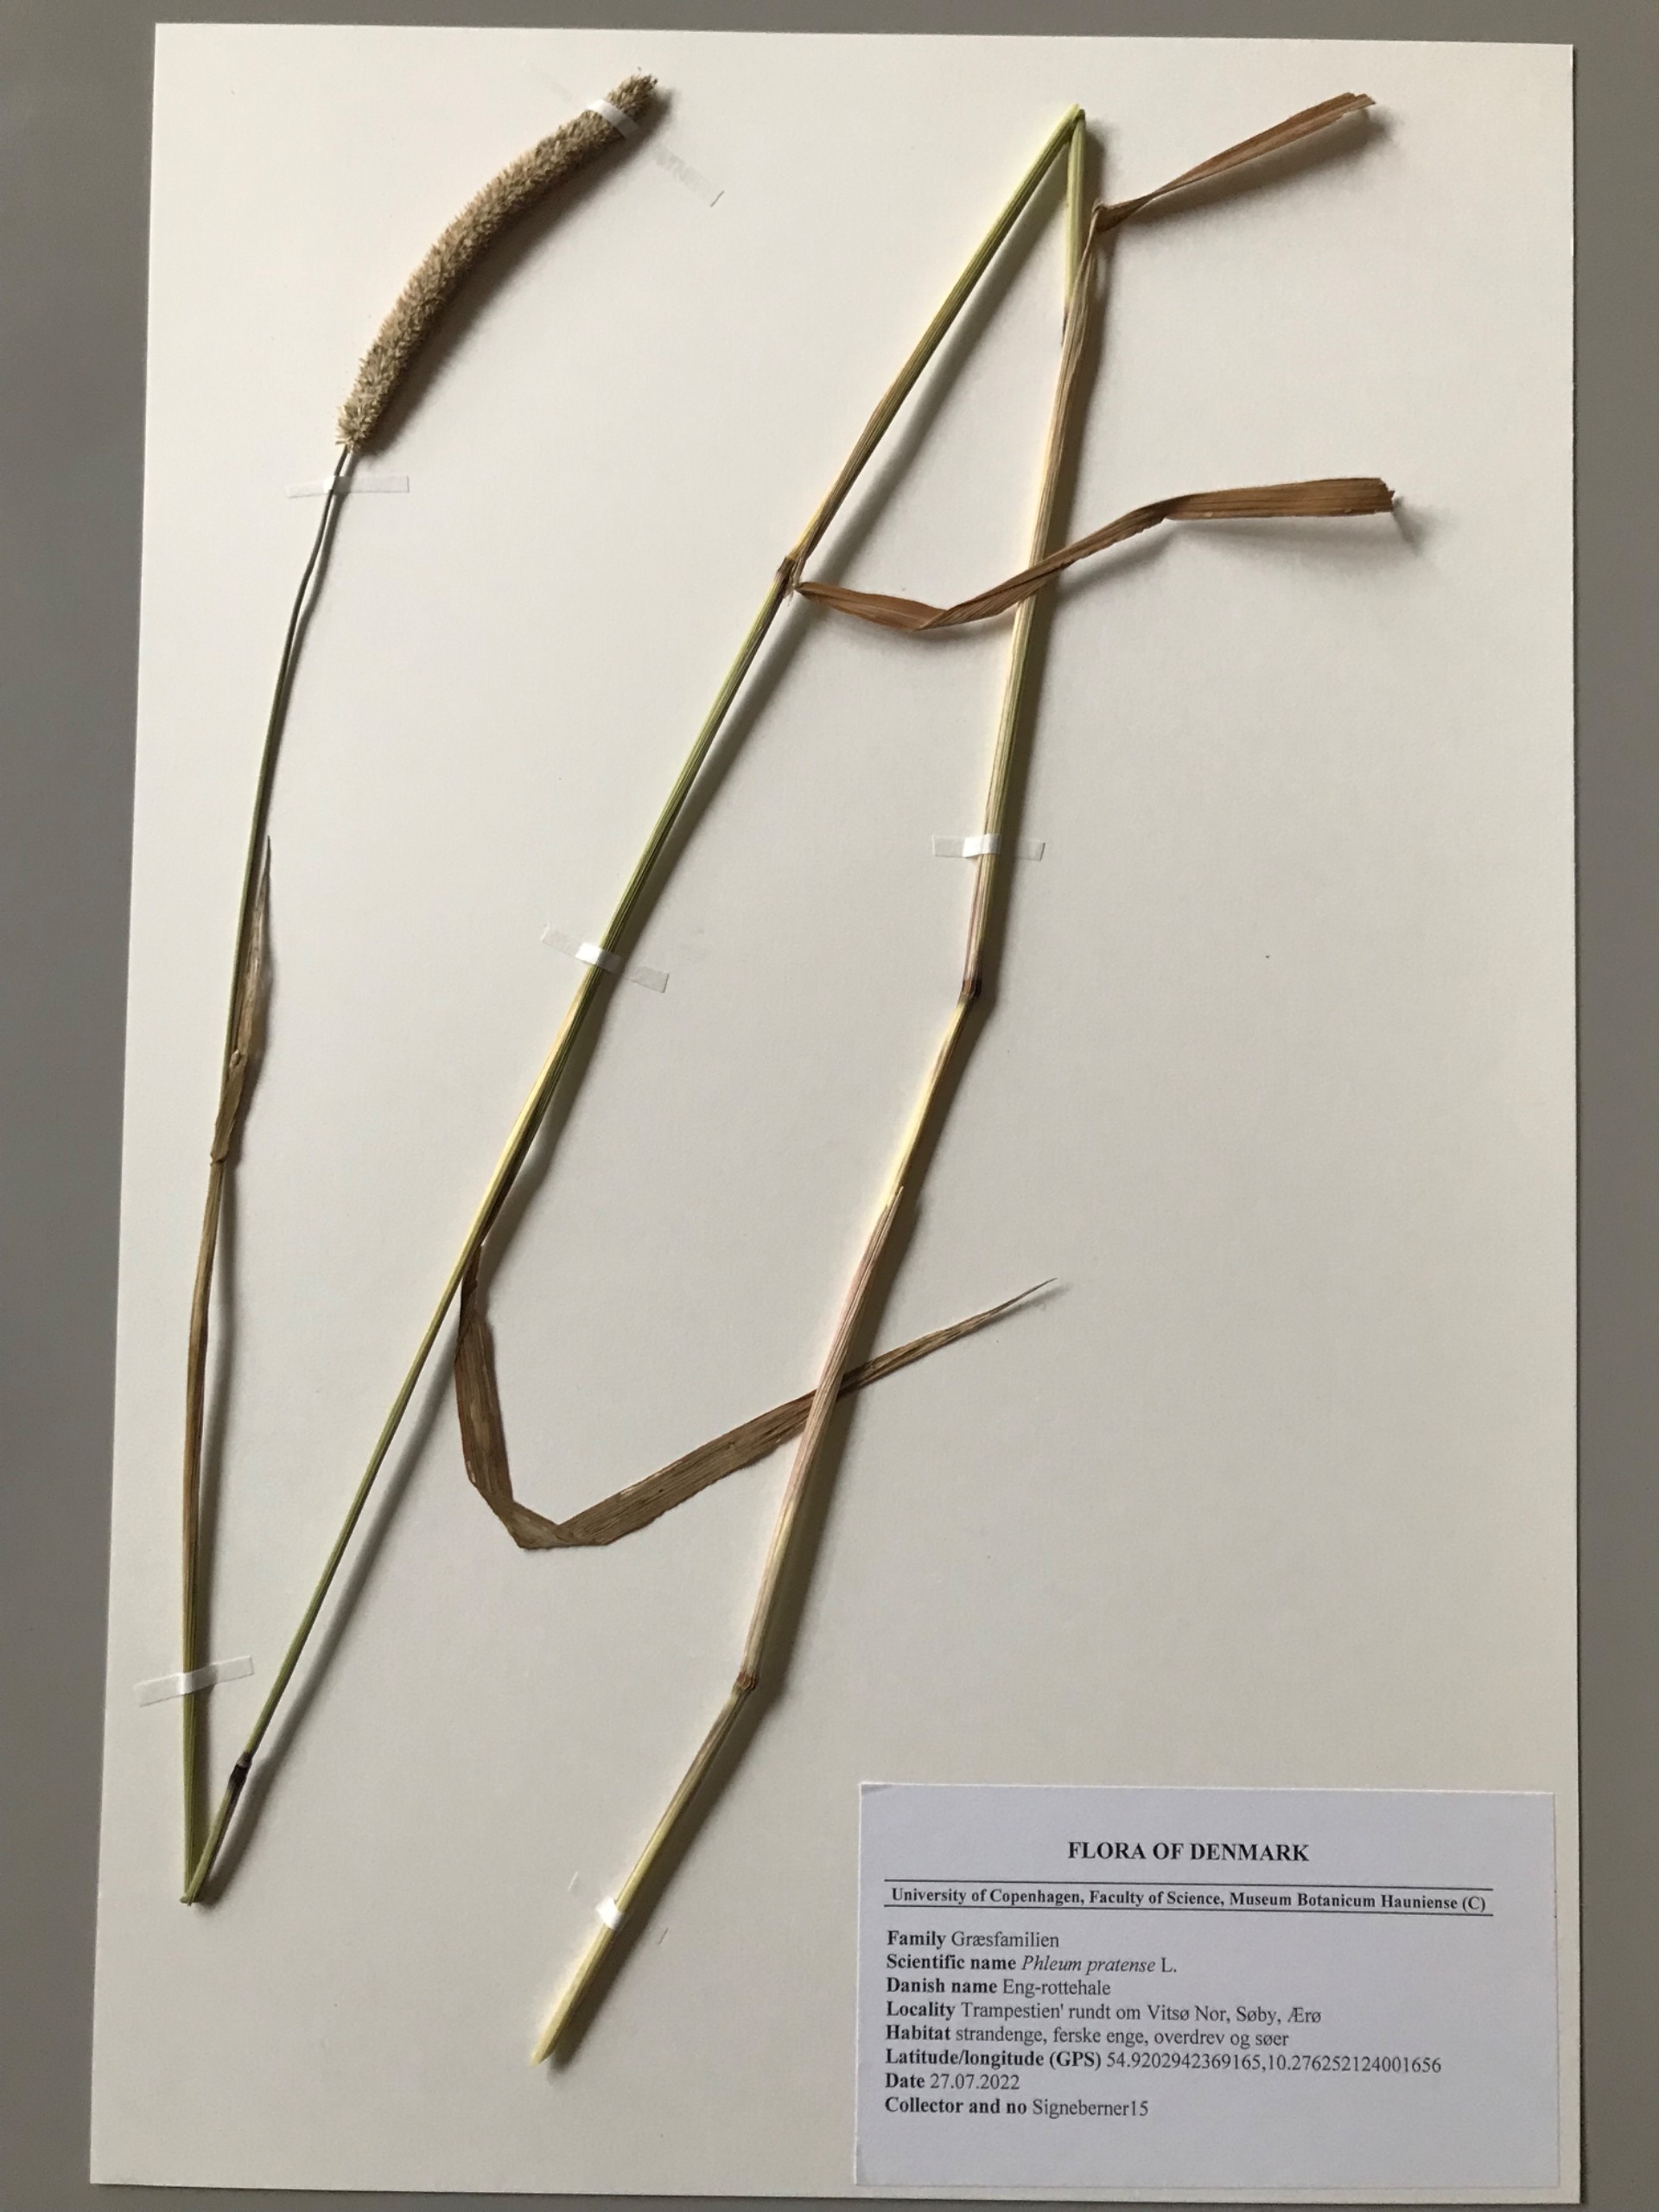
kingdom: Plantae
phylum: Tracheophyta
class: Liliopsida
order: Poales
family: Poaceae
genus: Phleum
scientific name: Phleum pratense
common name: Eng-rottehale
